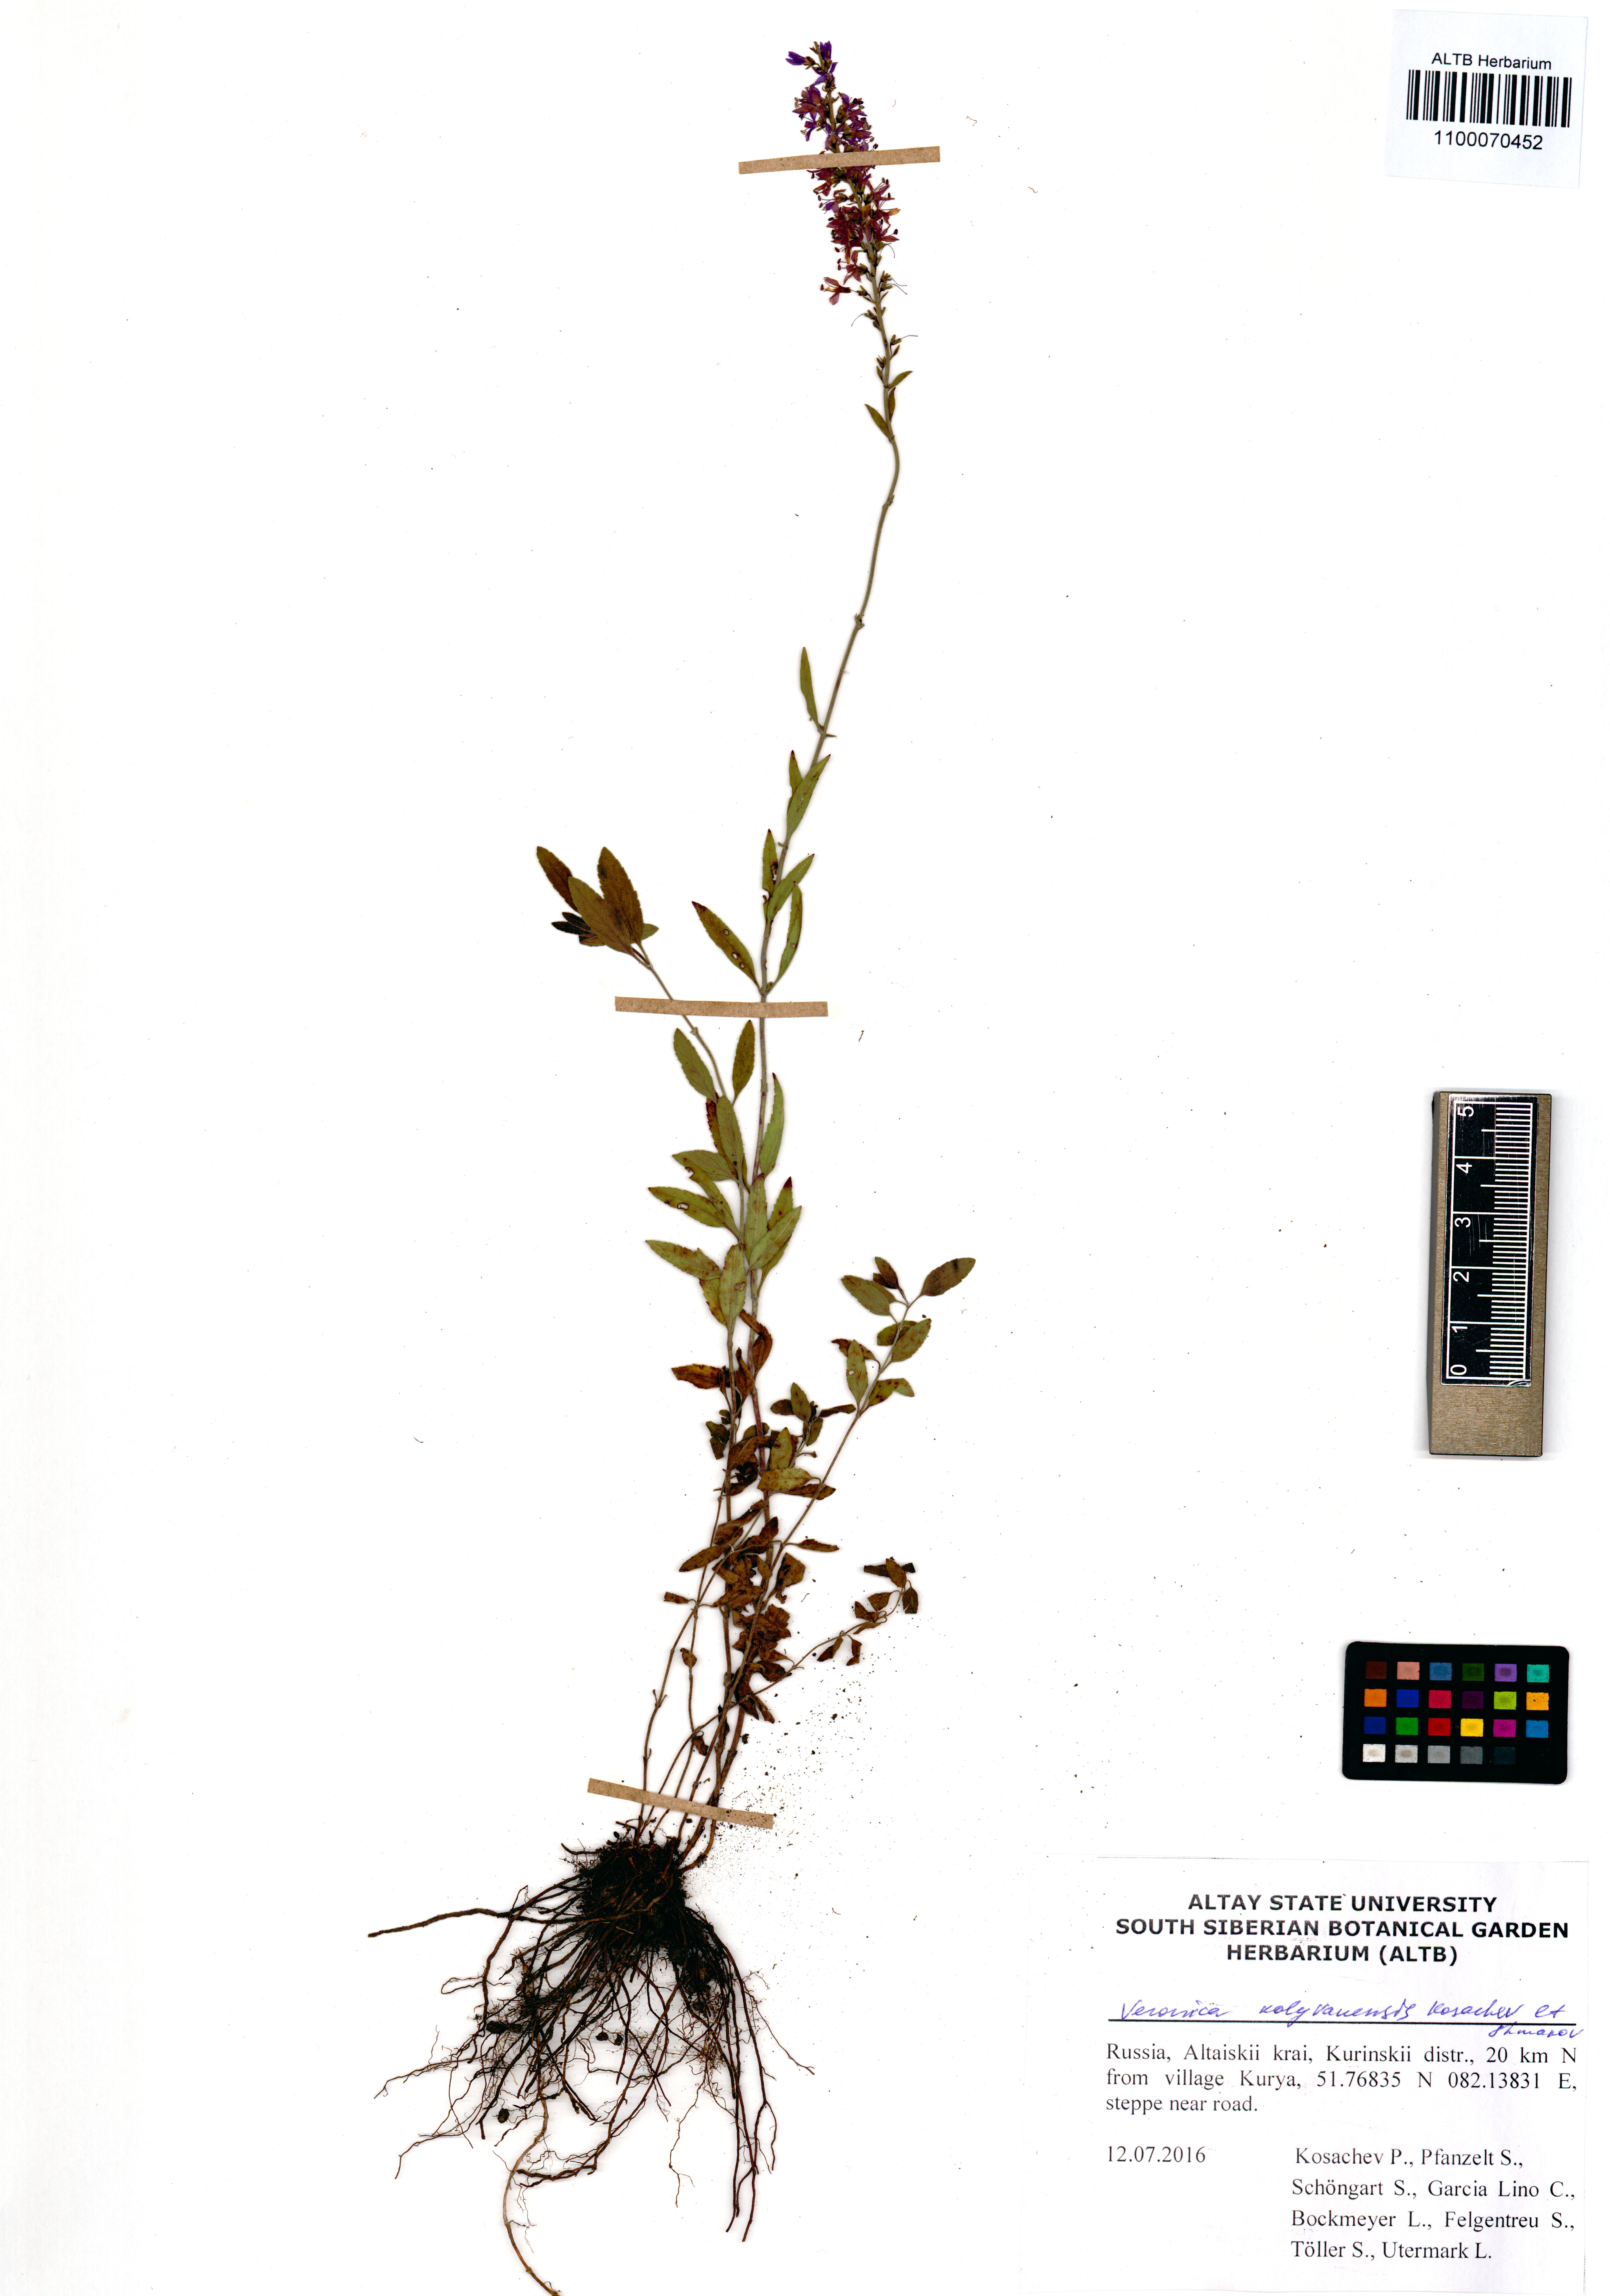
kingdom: Plantae
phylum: Tracheophyta
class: Magnoliopsida
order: Lamiales
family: Plantaginaceae
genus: Veronica
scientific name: Veronica kolyvanensis
